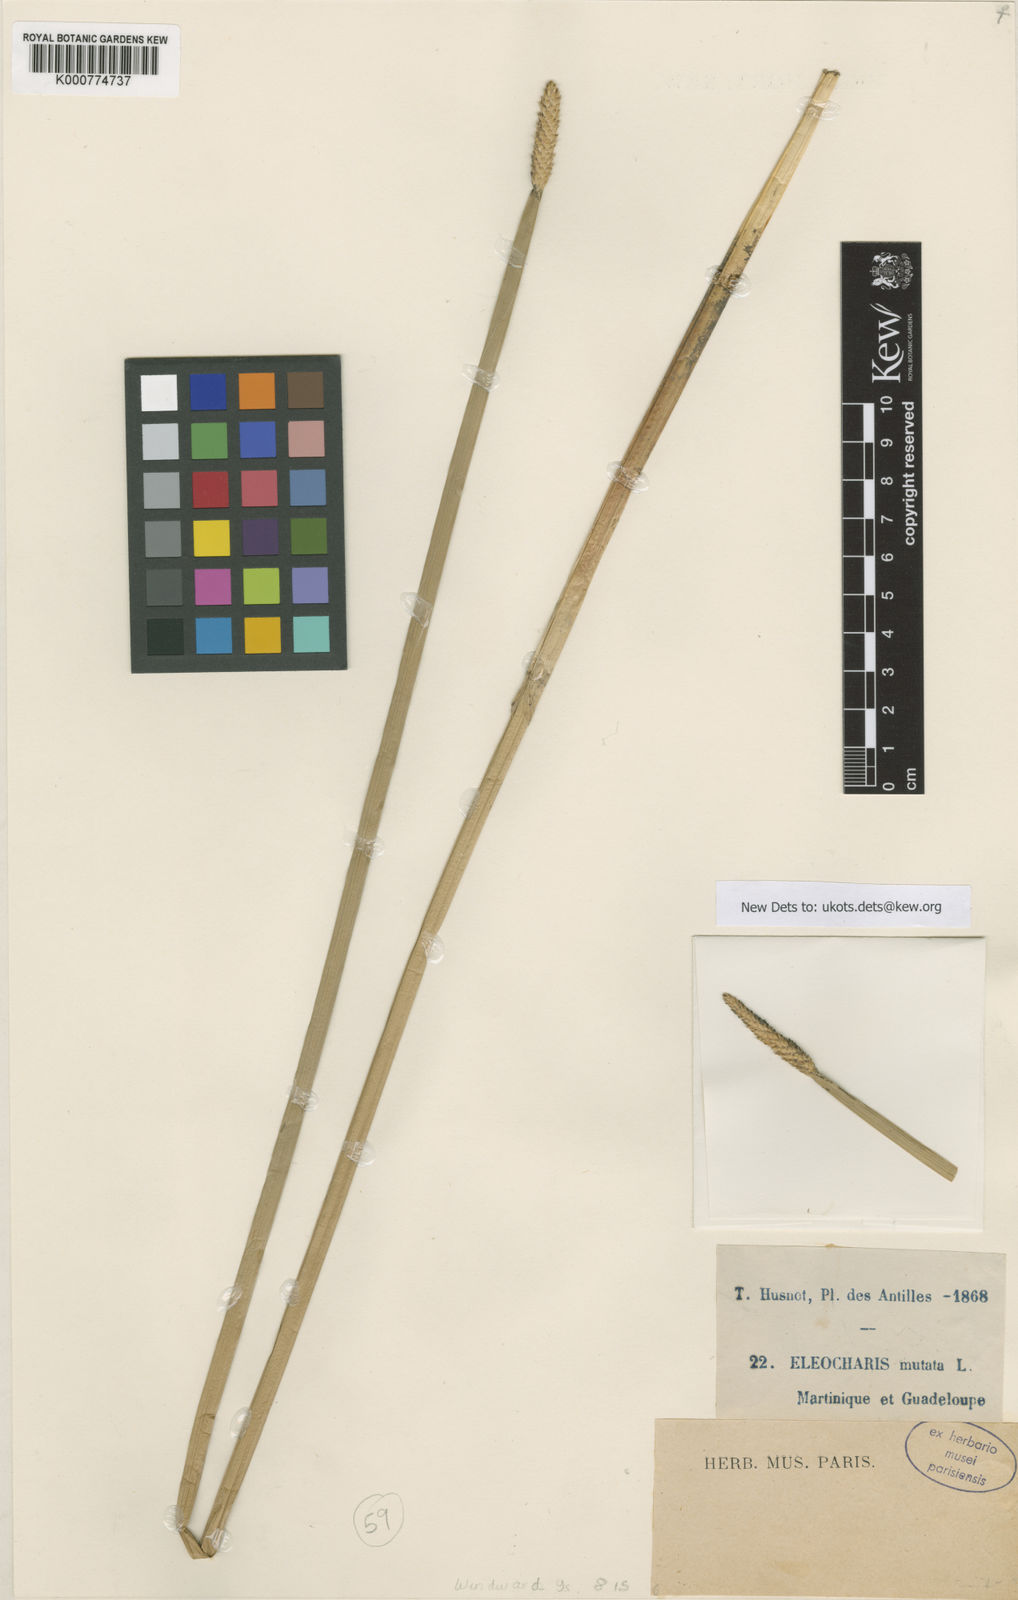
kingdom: Plantae
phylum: Tracheophyta
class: Liliopsida
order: Poales
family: Cyperaceae
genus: Eleocharis
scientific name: Eleocharis mutata
